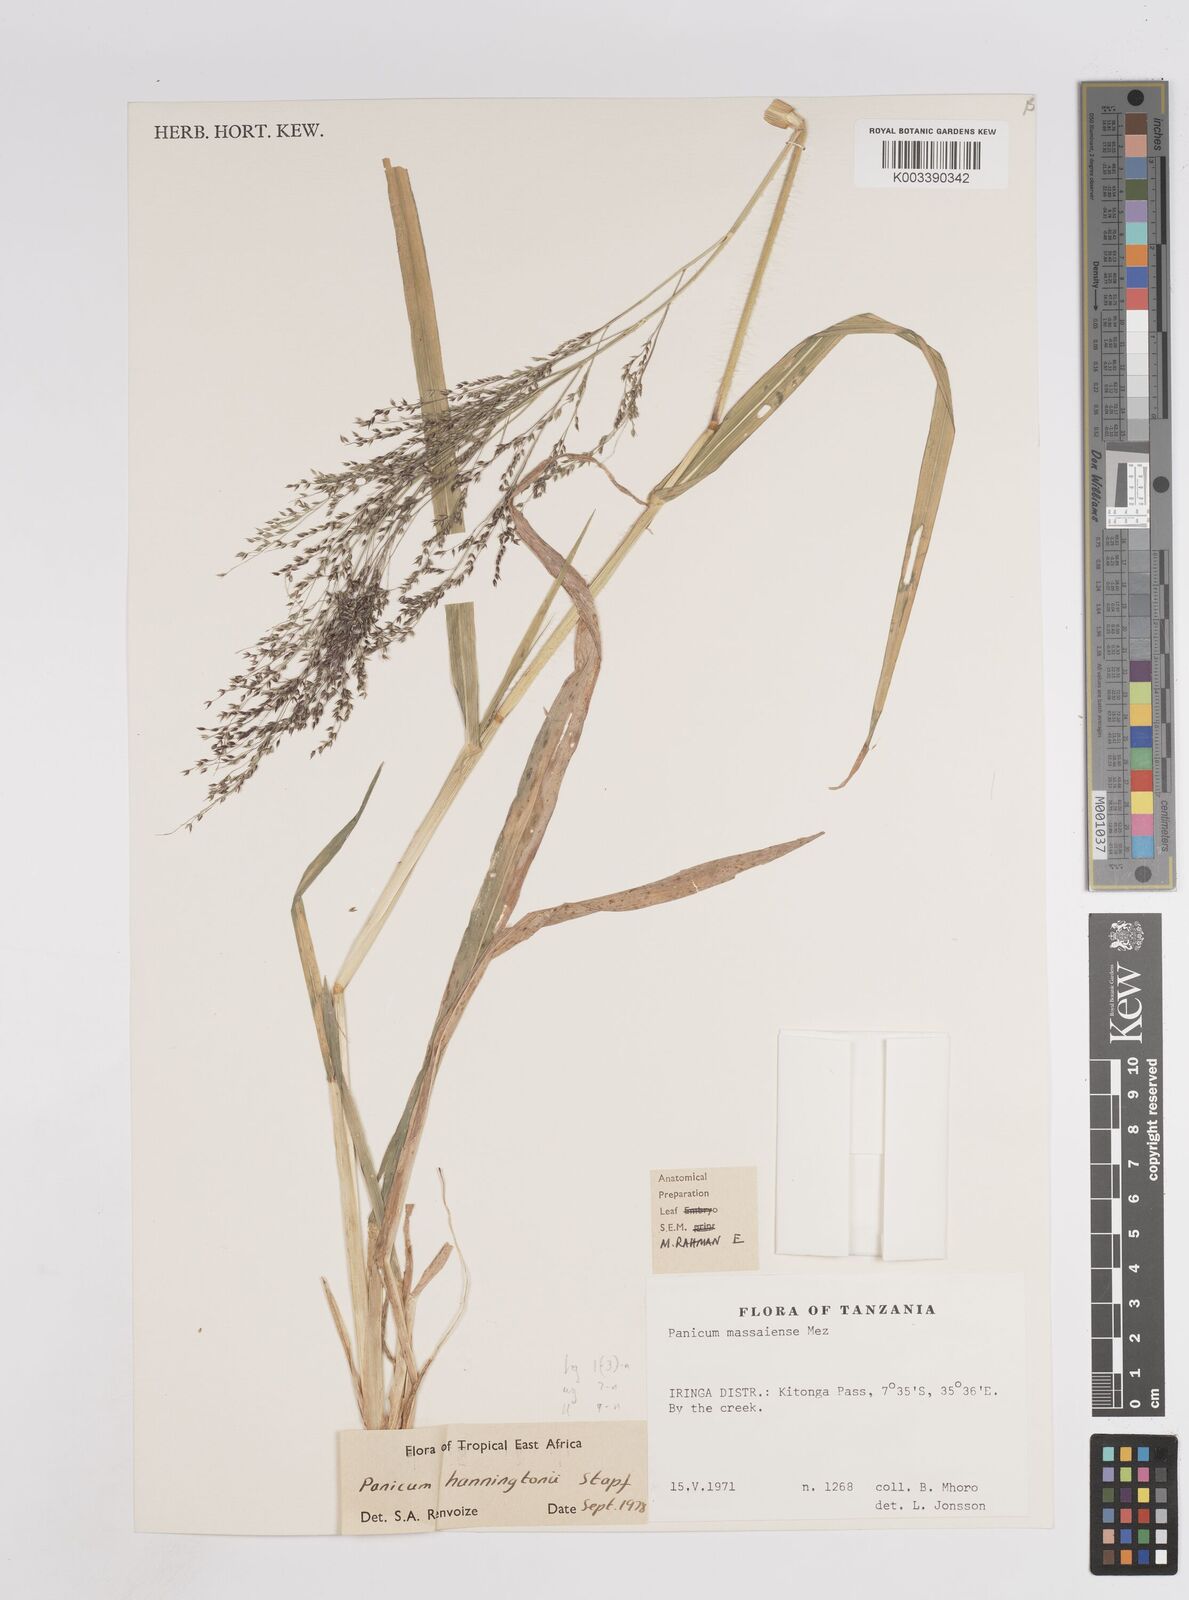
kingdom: Plantae
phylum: Tracheophyta
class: Liliopsida
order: Poales
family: Poaceae
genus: Panicum
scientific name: Panicum hanningtonii
